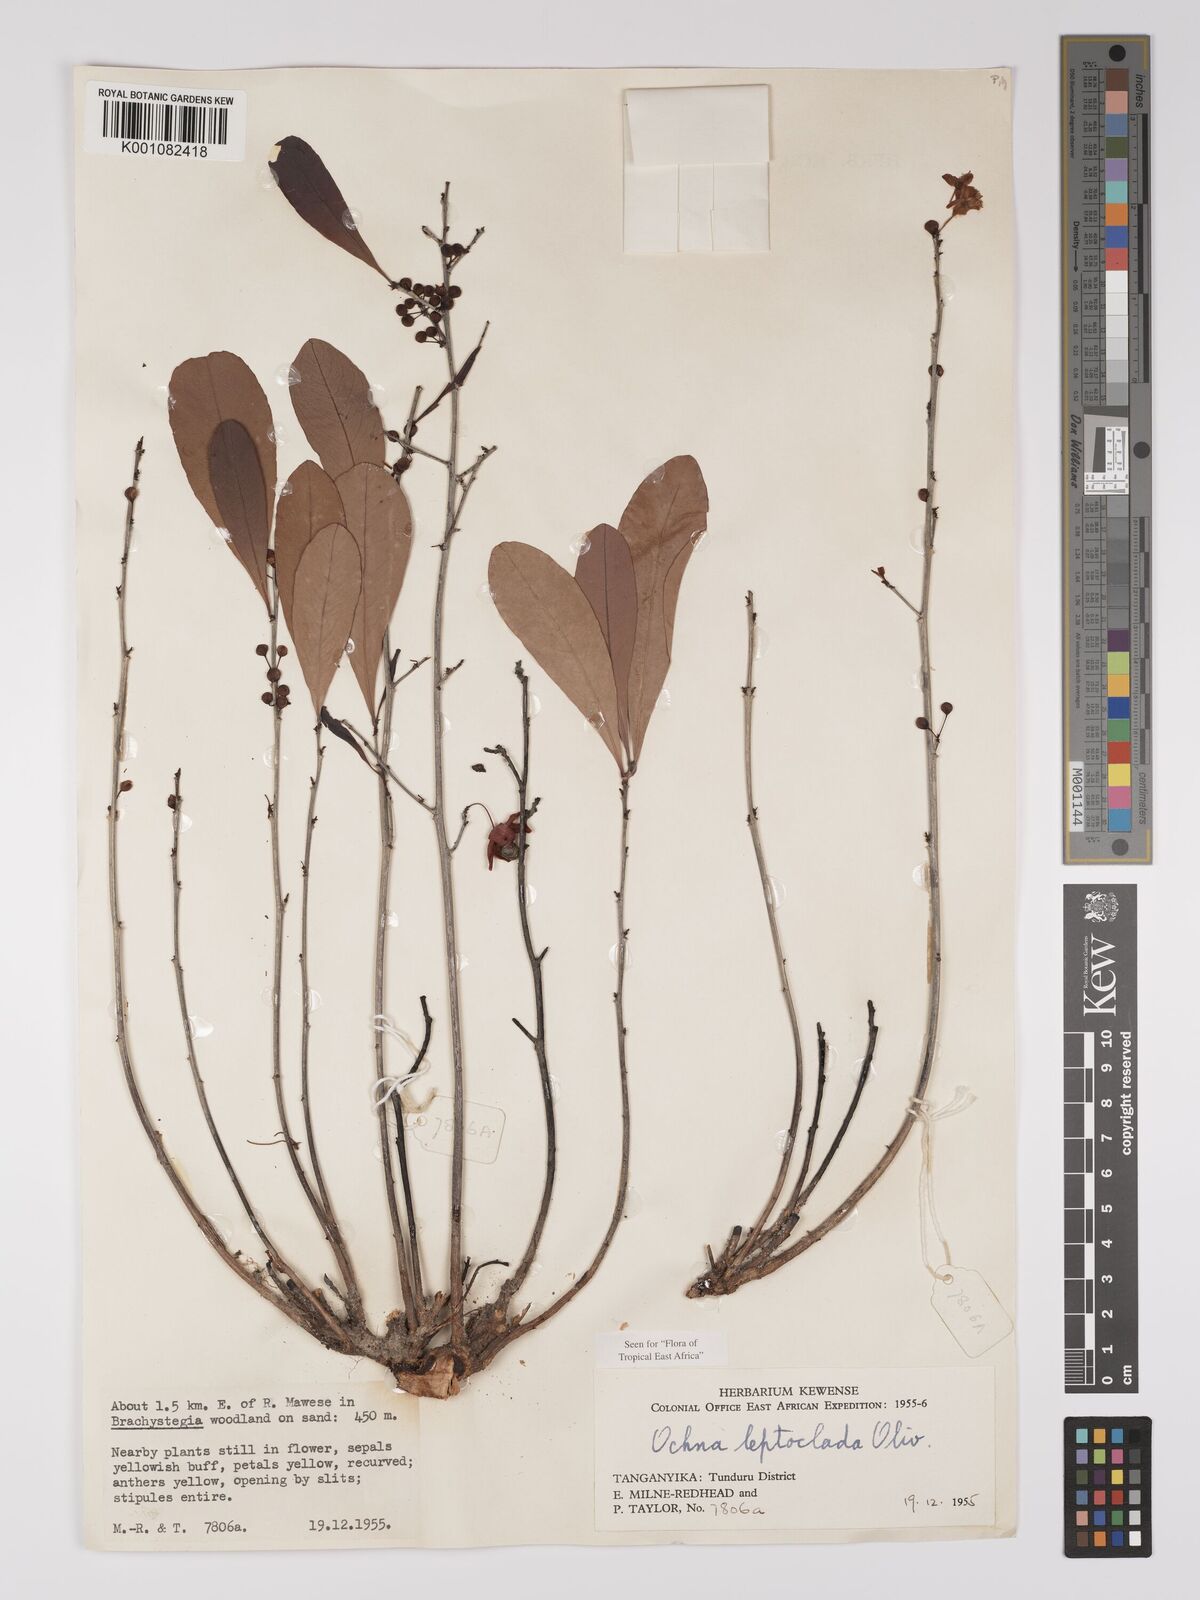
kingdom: Plantae
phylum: Tracheophyta
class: Magnoliopsida
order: Malpighiales
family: Ochnaceae
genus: Ochna
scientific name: Ochna leptoclada
